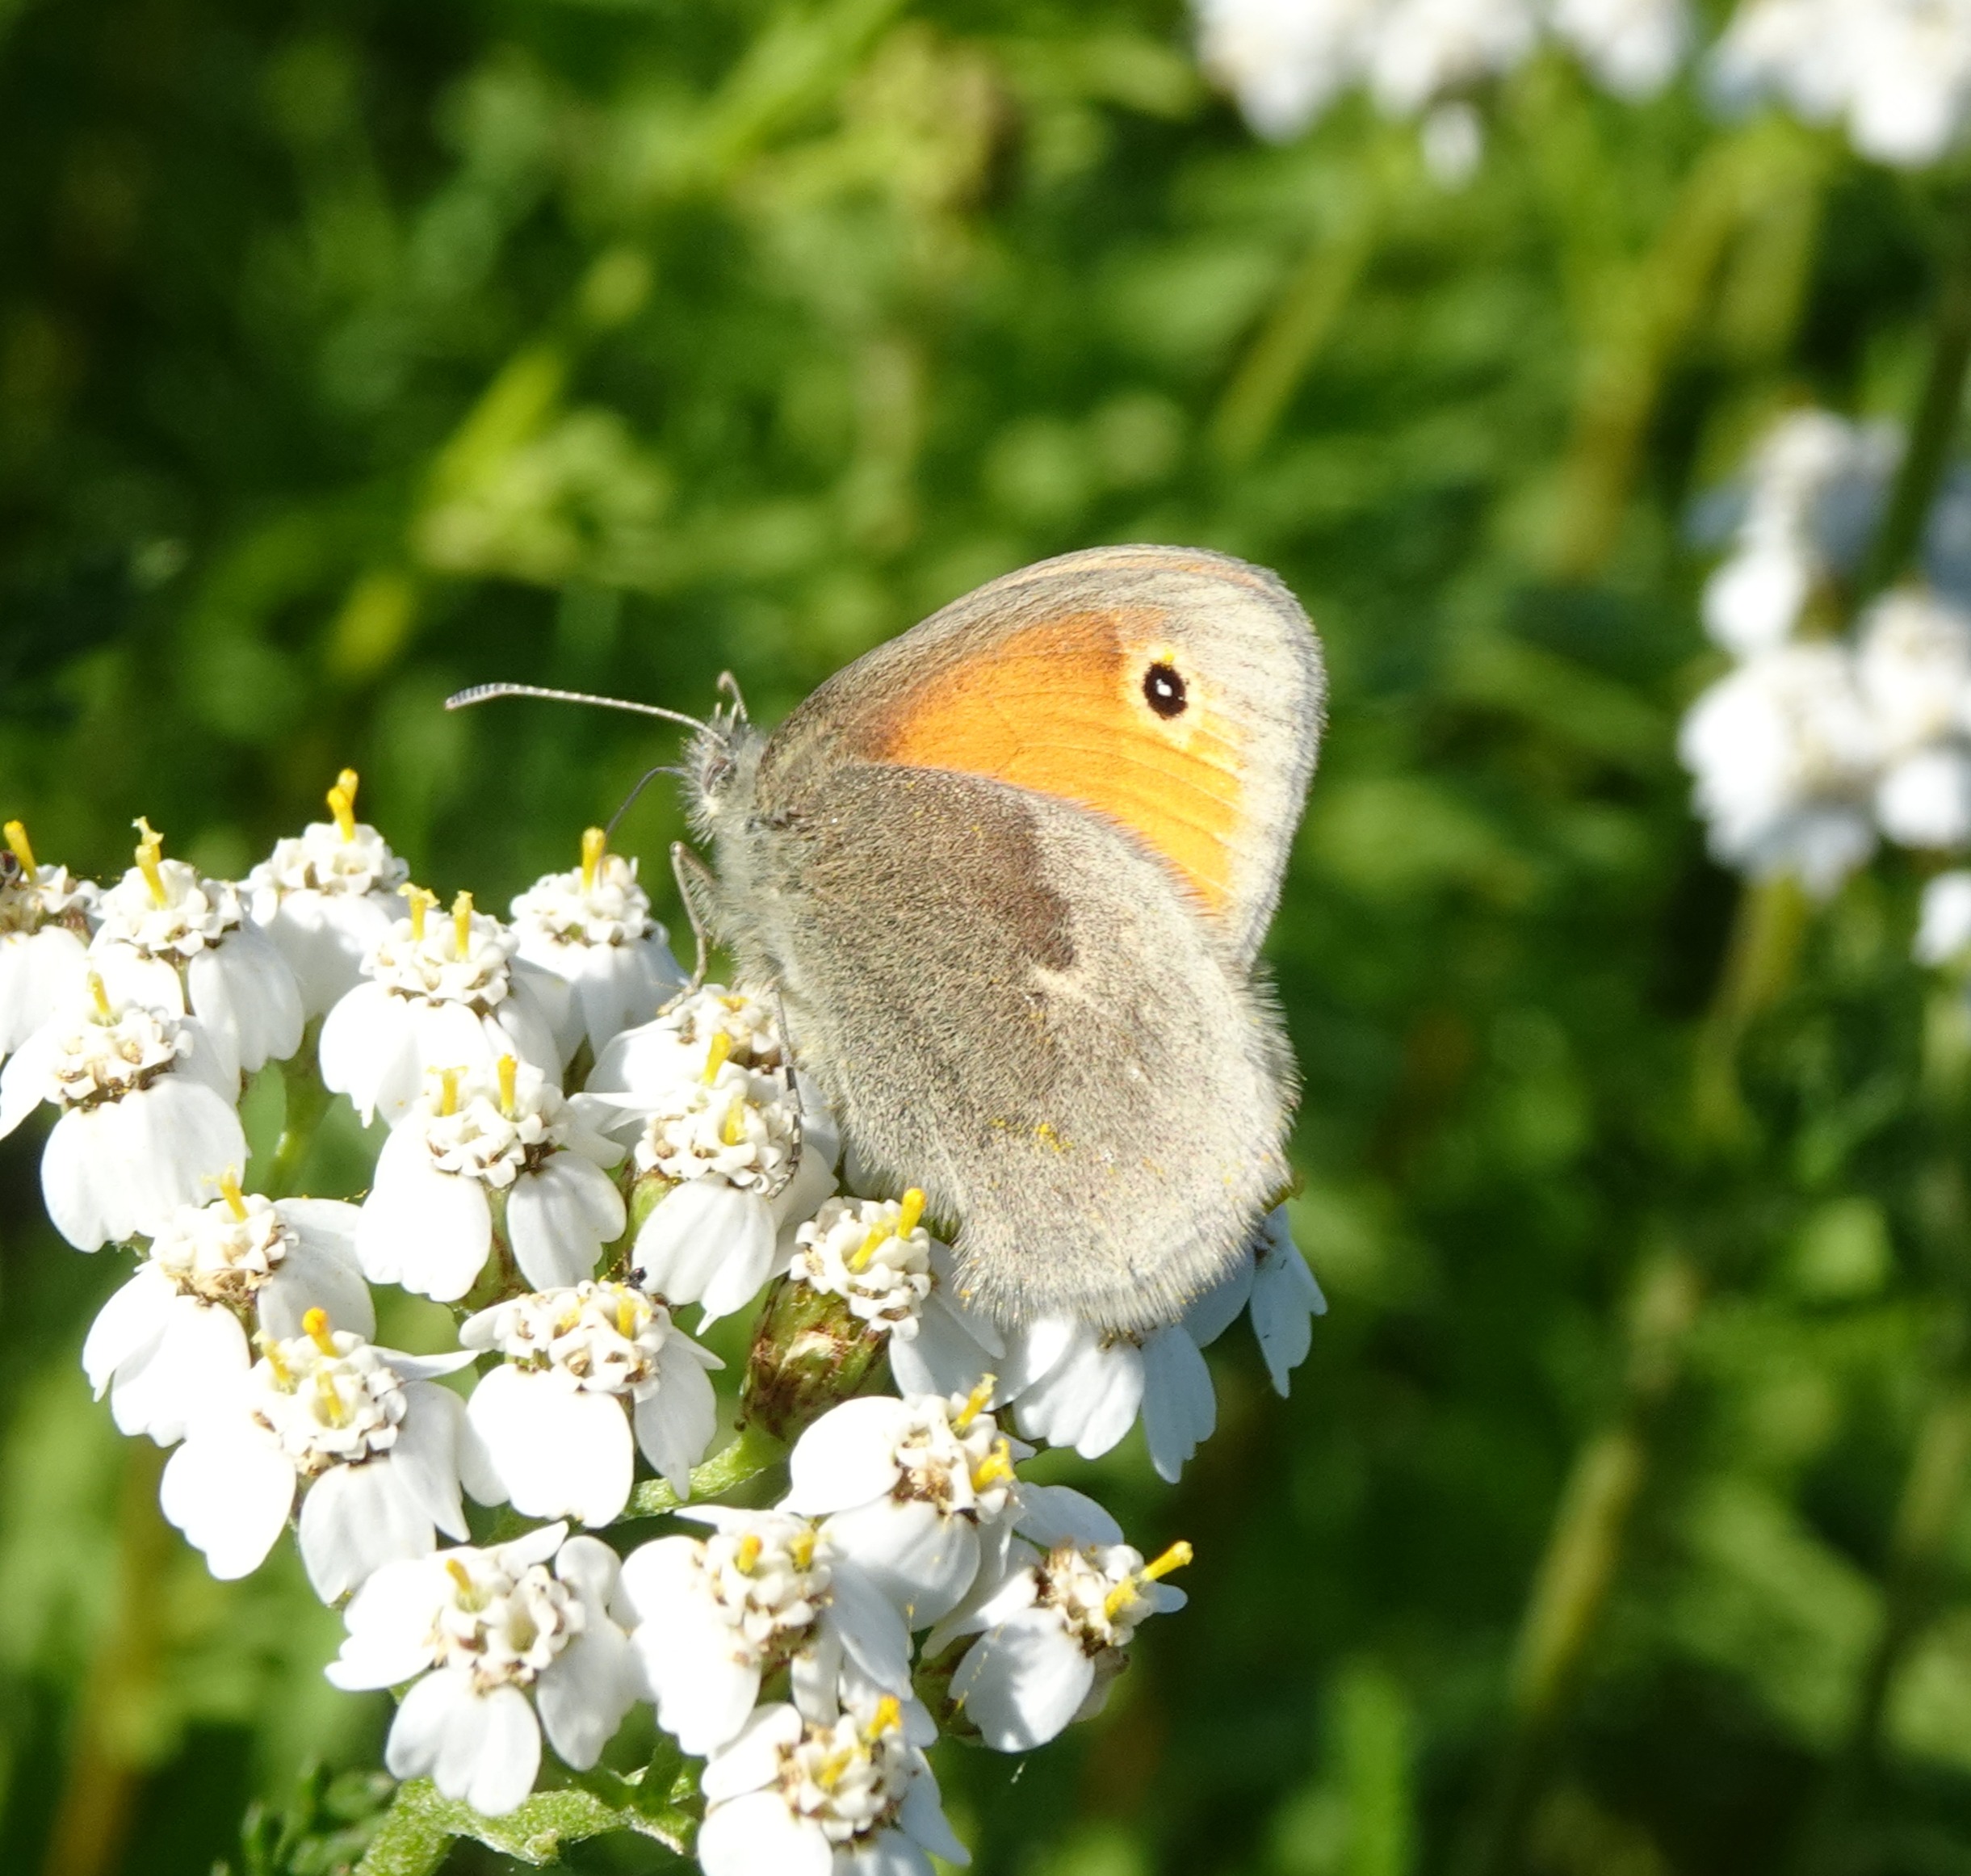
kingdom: Animalia
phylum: Arthropoda
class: Insecta
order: Lepidoptera
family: Nymphalidae
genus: Coenonympha
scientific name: Coenonympha pamphilus
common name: Okkergul randøje
